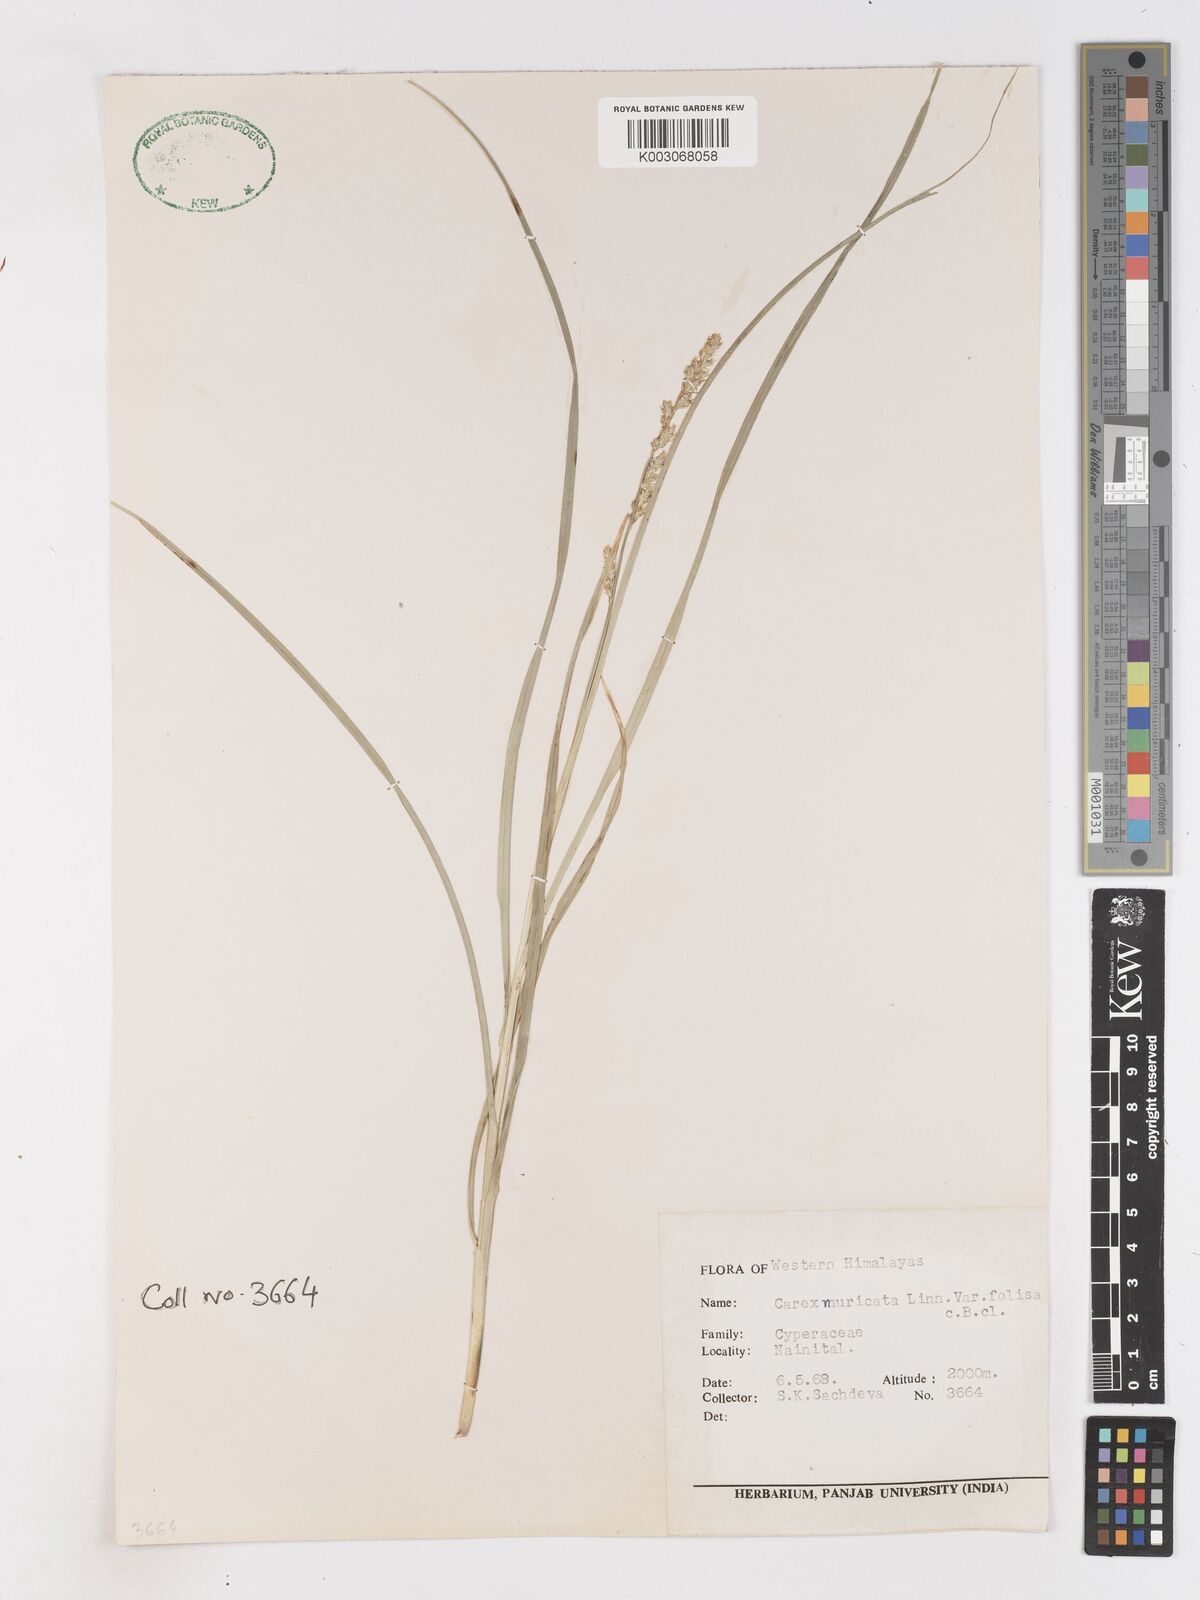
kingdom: Plantae
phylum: Tracheophyta
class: Liliopsida
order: Poales
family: Cyperaceae
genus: Cyperus
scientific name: Cyperus
